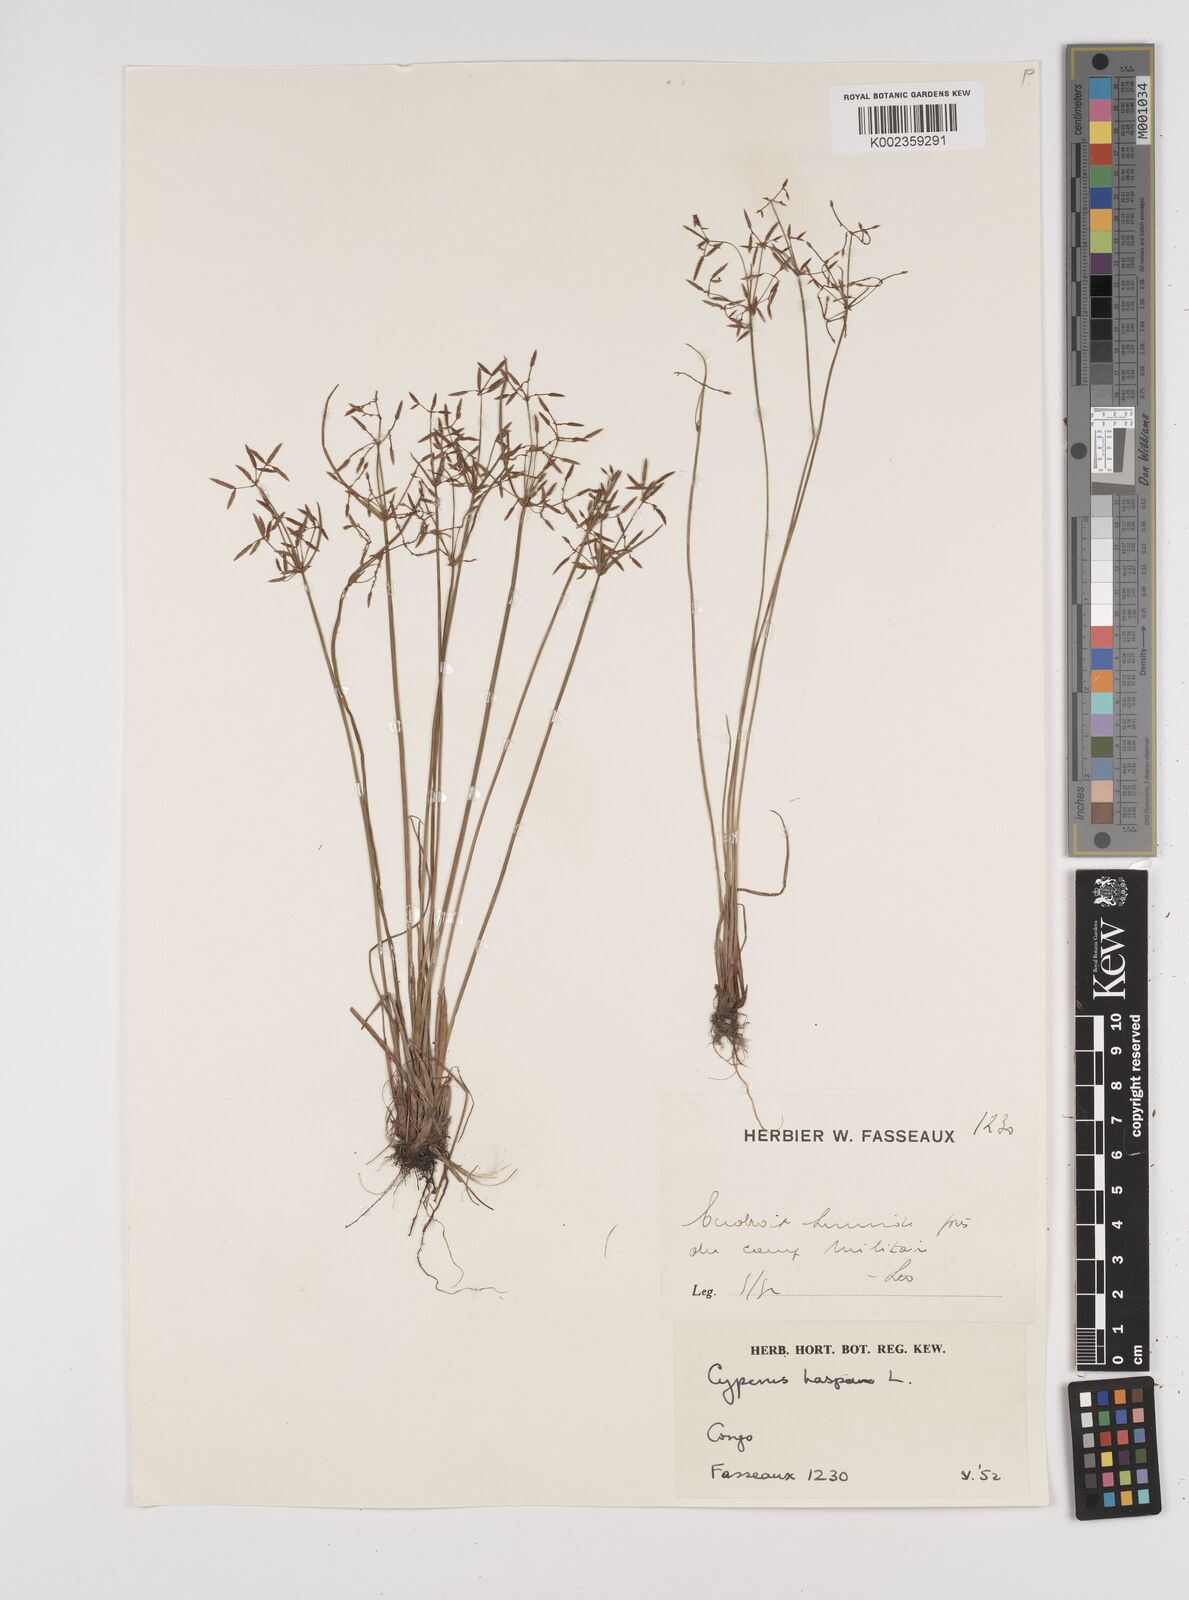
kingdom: Plantae
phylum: Tracheophyta
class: Liliopsida
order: Poales
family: Cyperaceae
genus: Cyperus
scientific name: Cyperus haspan
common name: Haspan flatsedge
